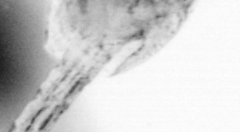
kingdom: Animalia
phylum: Arthropoda
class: Copepoda
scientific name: Copepoda
